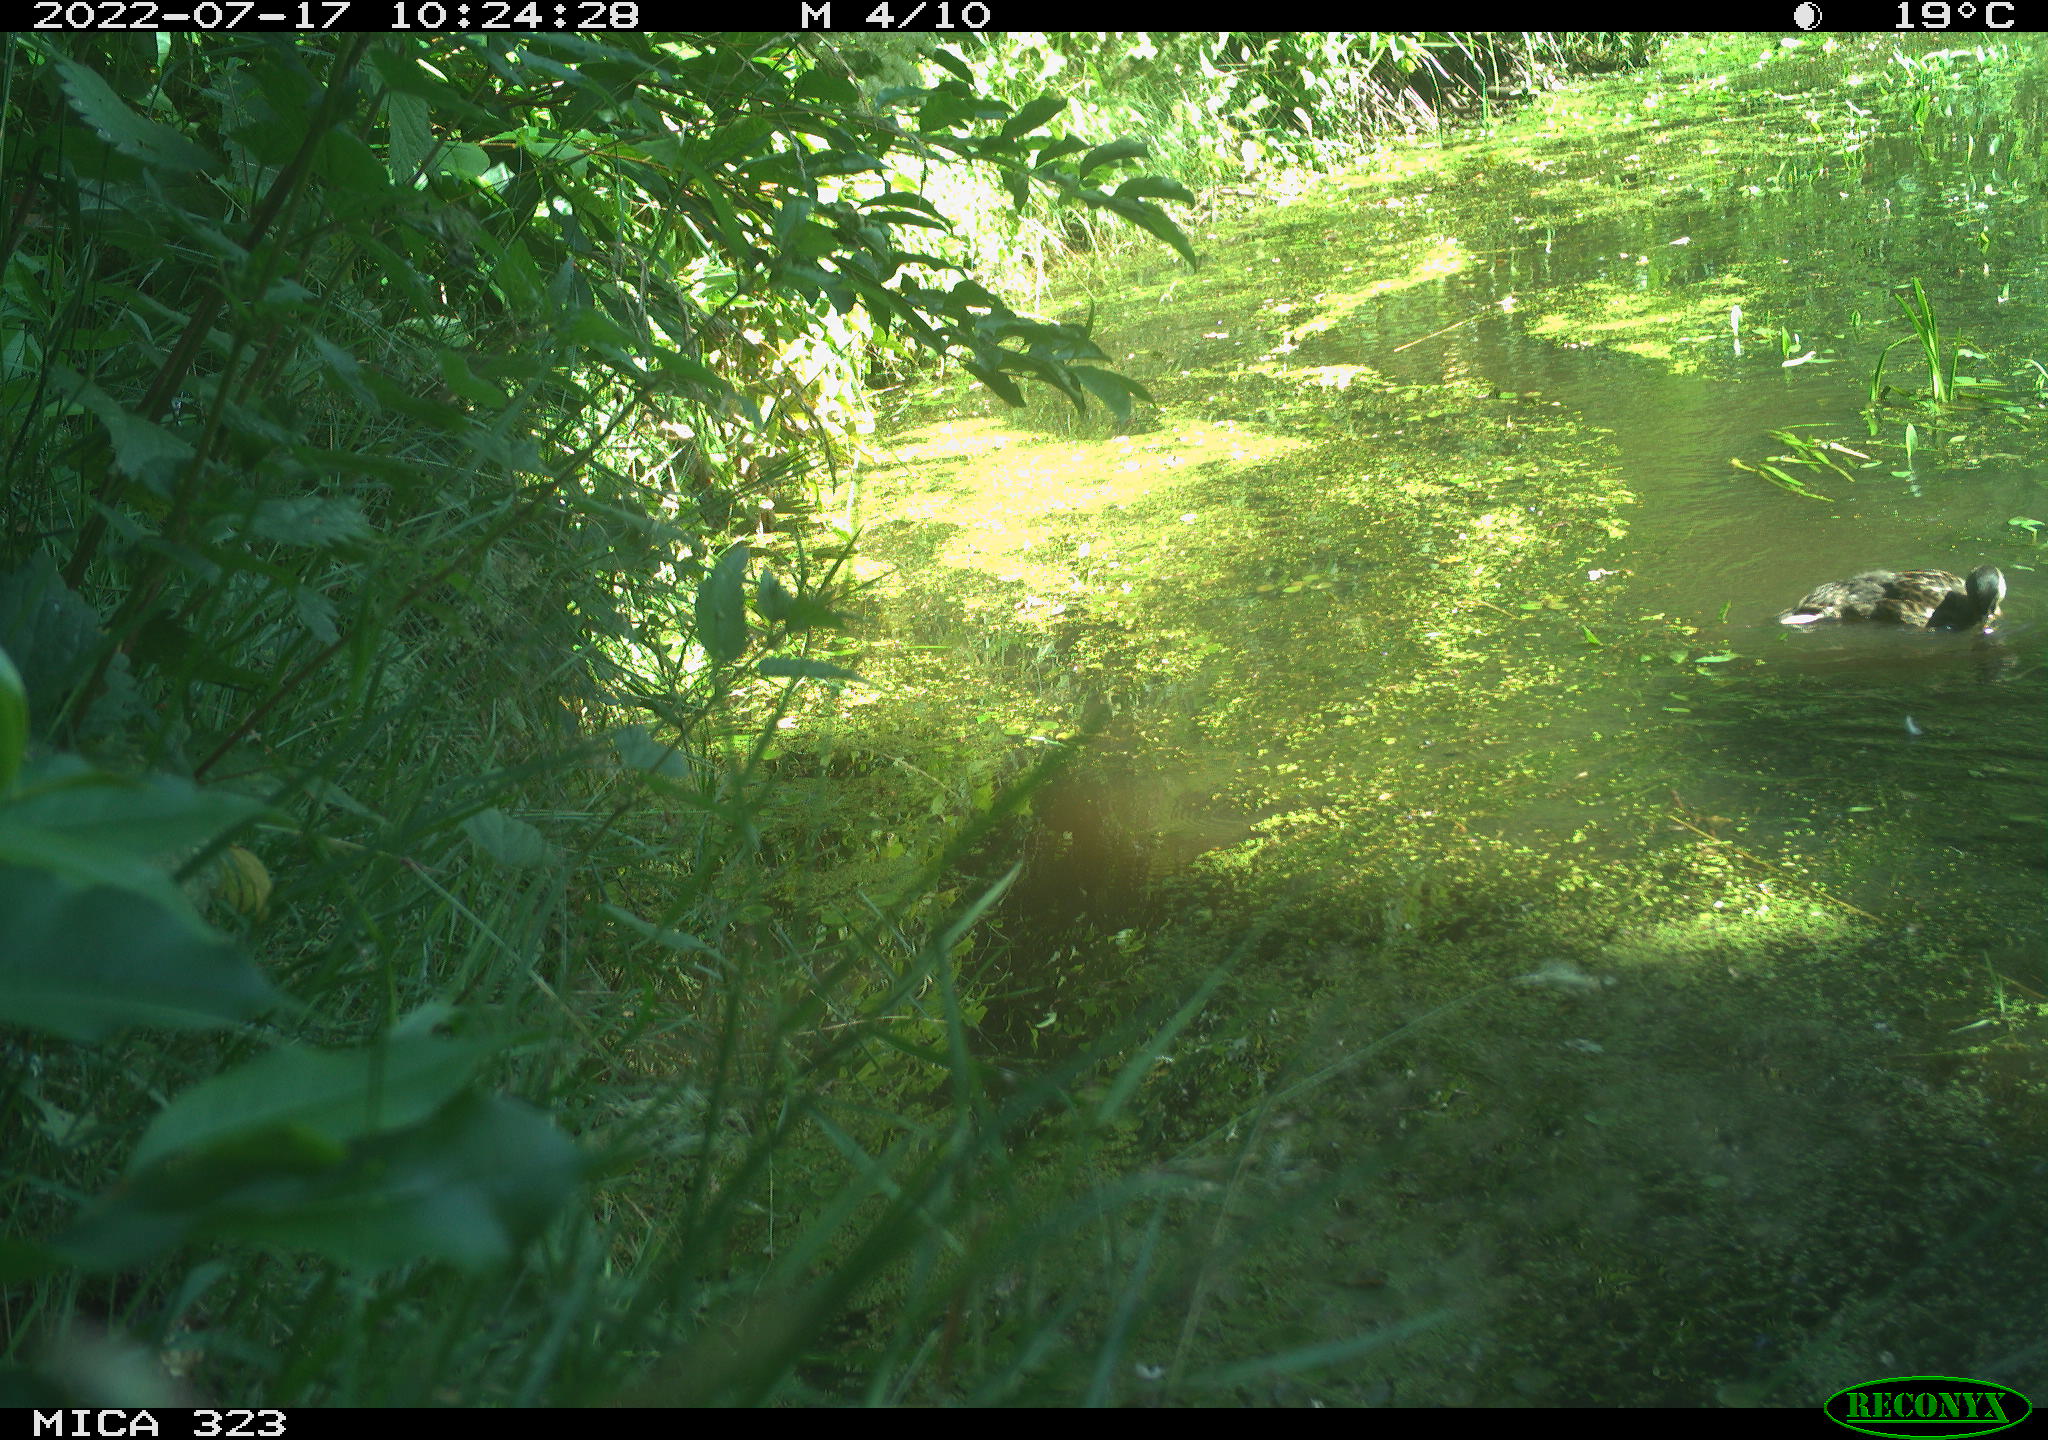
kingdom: Animalia
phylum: Chordata
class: Aves
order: Anseriformes
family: Anatidae
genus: Anas
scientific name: Anas platyrhynchos
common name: Mallard
